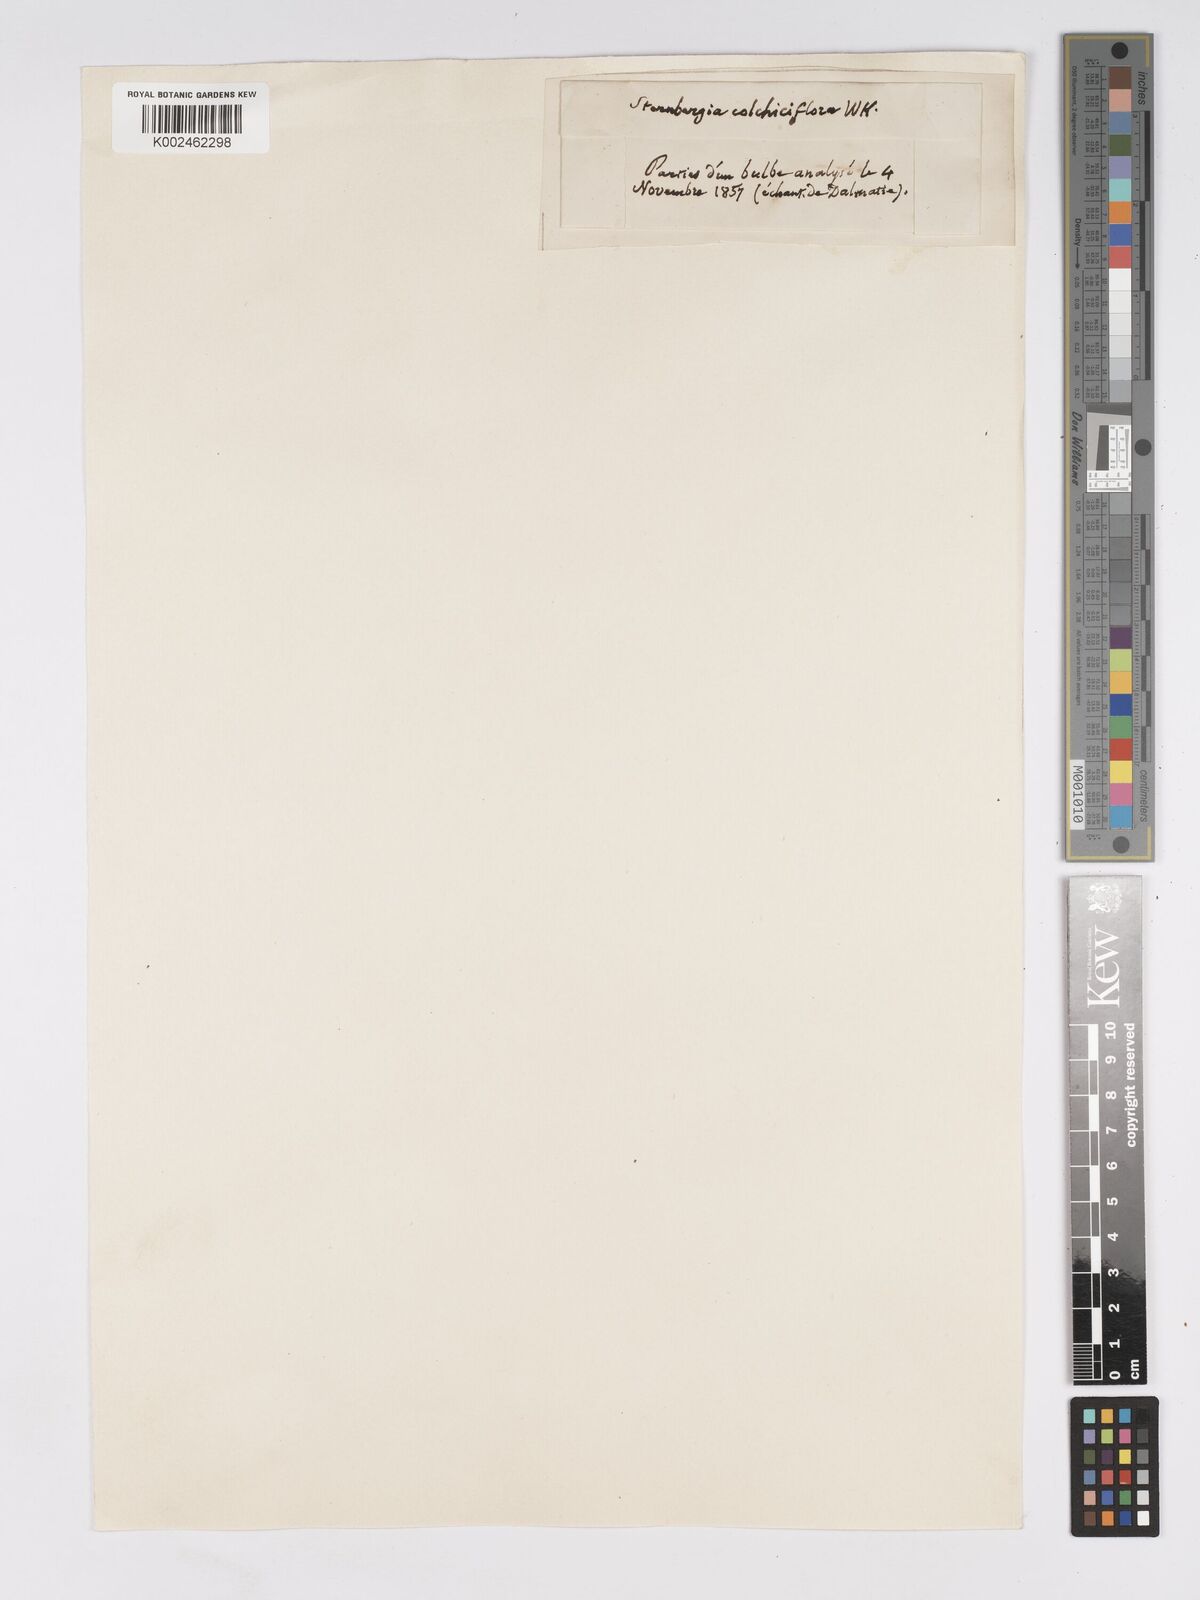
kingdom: Plantae
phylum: Tracheophyta
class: Liliopsida
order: Asparagales
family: Amaryllidaceae
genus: Sternbergia
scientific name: Sternbergia colchiciflora
